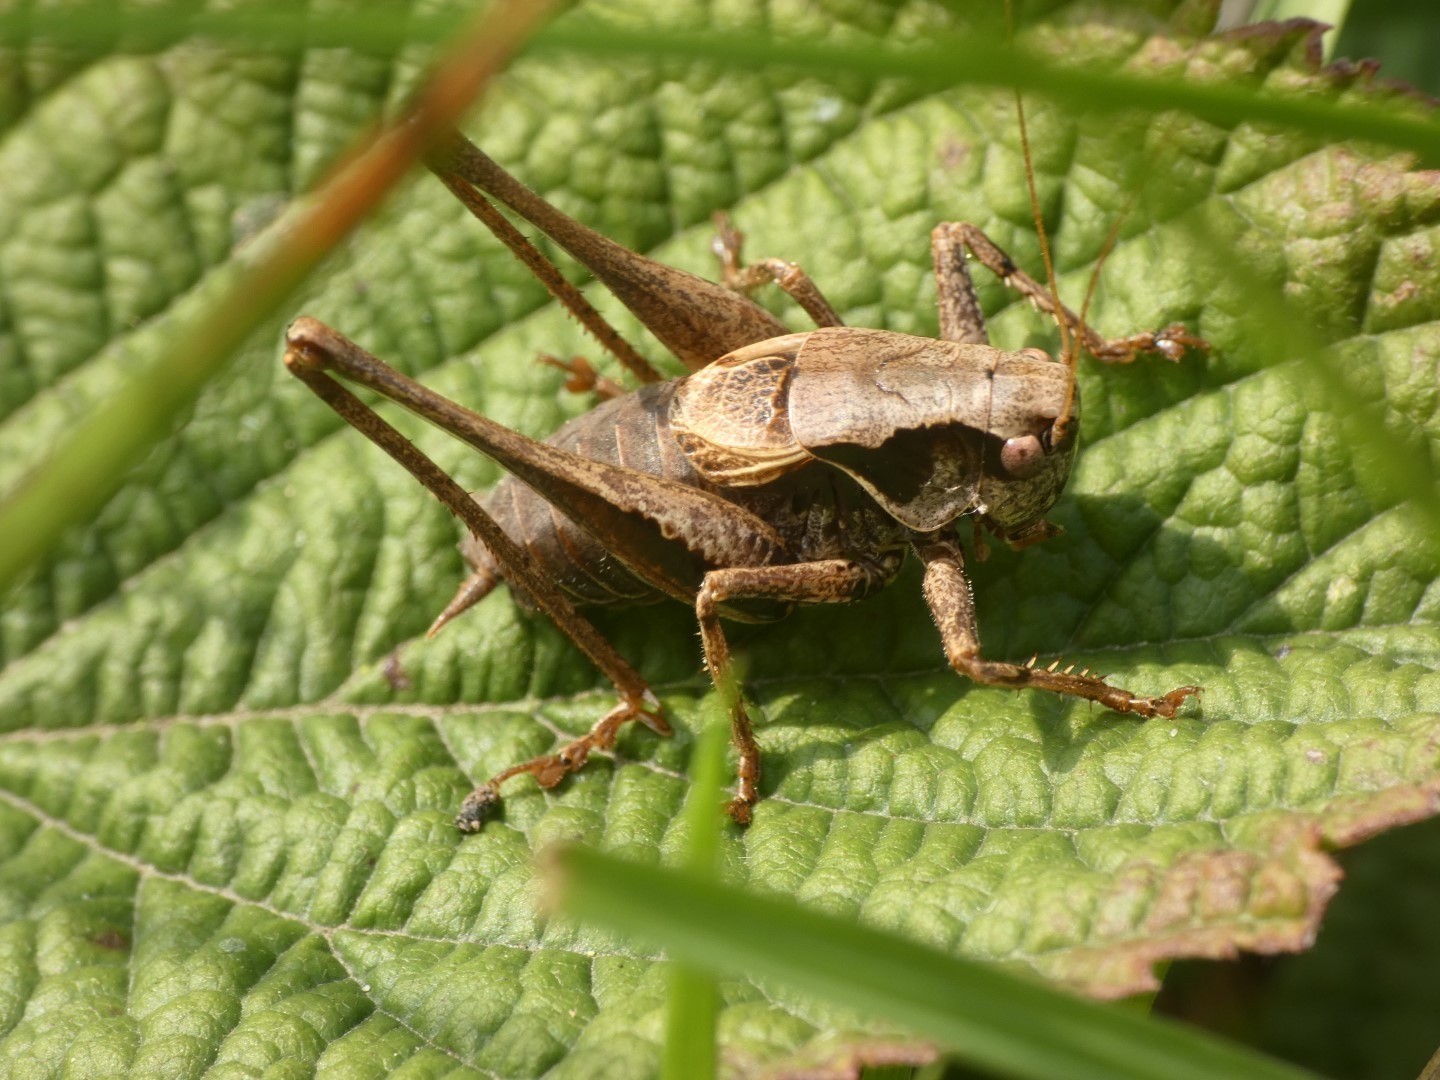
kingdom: Animalia
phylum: Arthropoda
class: Insecta
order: Orthoptera
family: Tettigoniidae
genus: Pholidoptera
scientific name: Pholidoptera griseoaptera
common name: Buskgræshoppe
